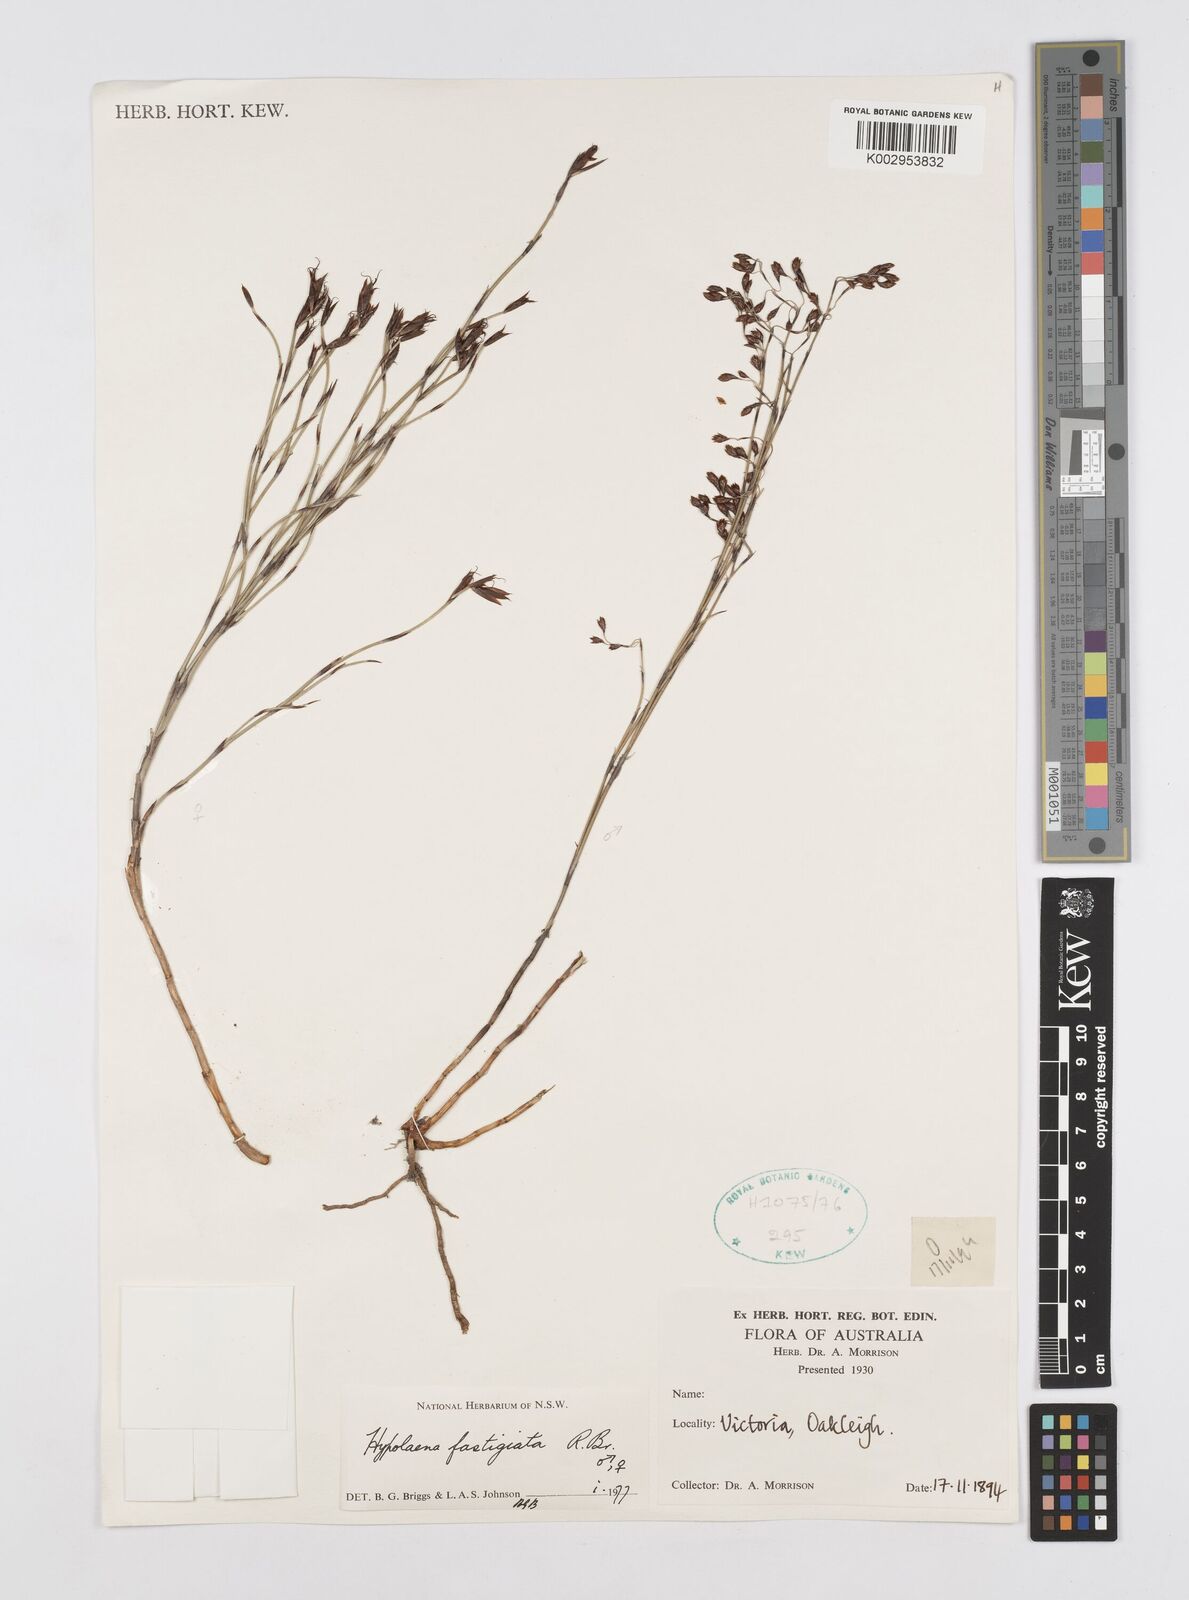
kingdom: Plantae
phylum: Tracheophyta
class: Liliopsida
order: Poales
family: Restionaceae
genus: Hypolaena
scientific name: Hypolaena fastigiata
